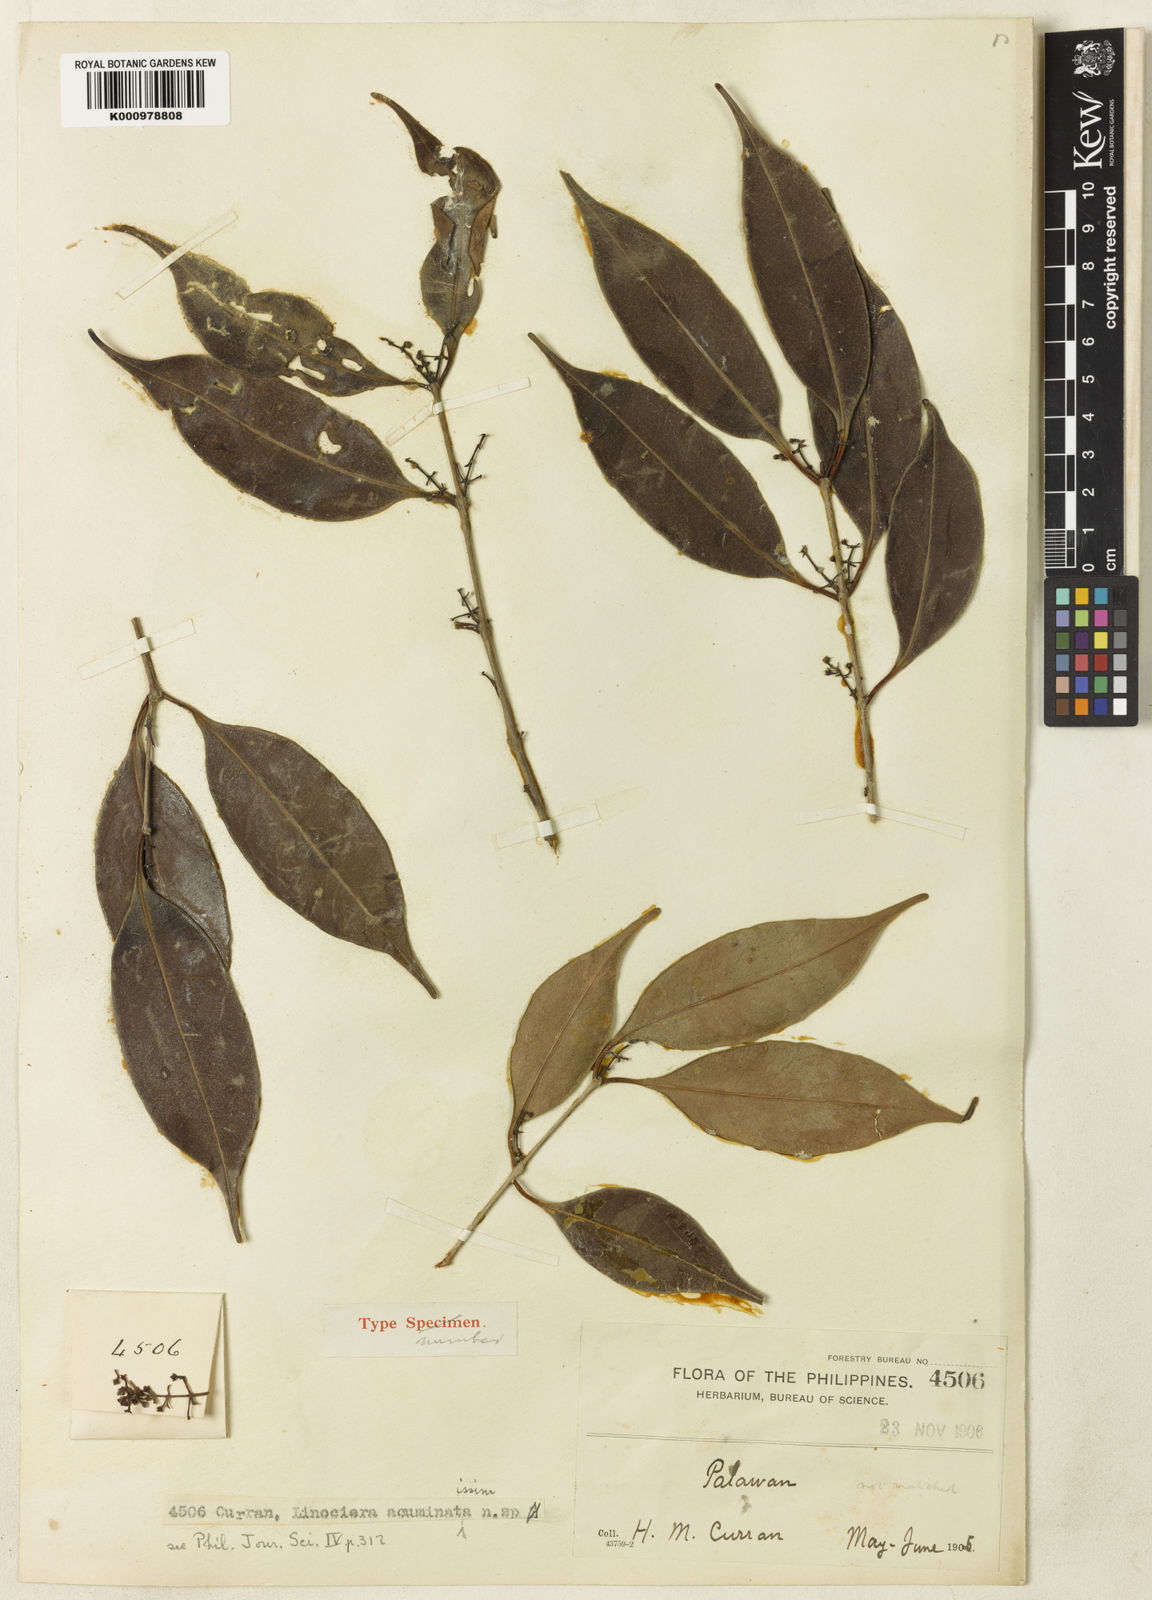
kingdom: Plantae
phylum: Tracheophyta
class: Magnoliopsida
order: Lamiales
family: Oleaceae
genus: Chionanthus
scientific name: Chionanthus
